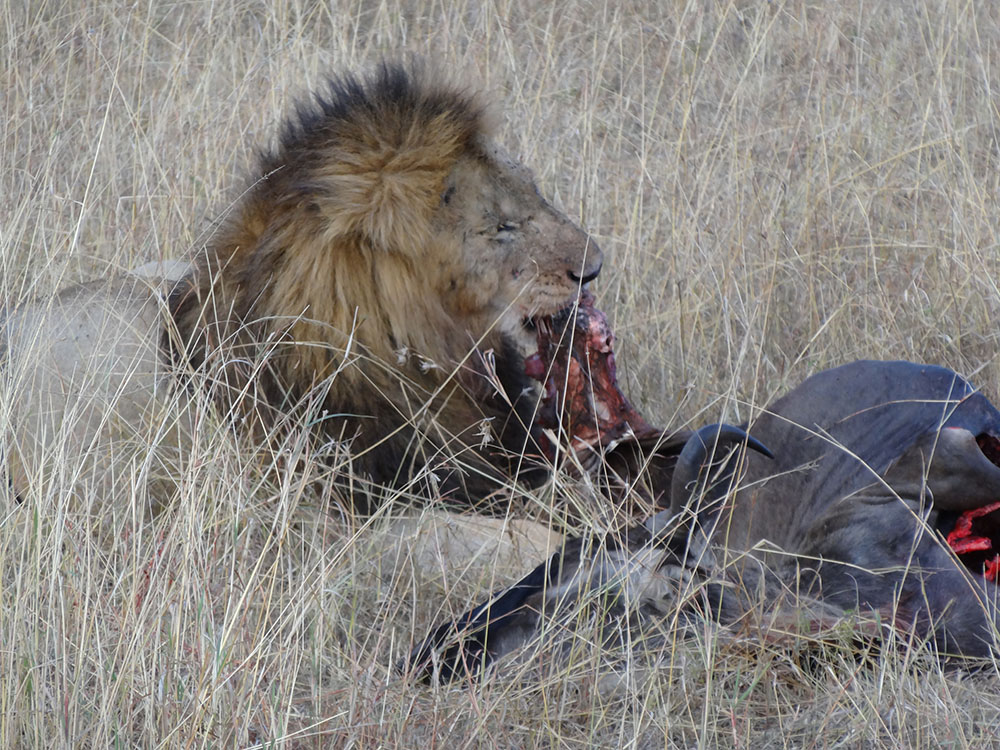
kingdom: Animalia
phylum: Chordata
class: Mammalia
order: Carnivora
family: Felidae
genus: Panthera
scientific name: Panthera leo
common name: Lion
